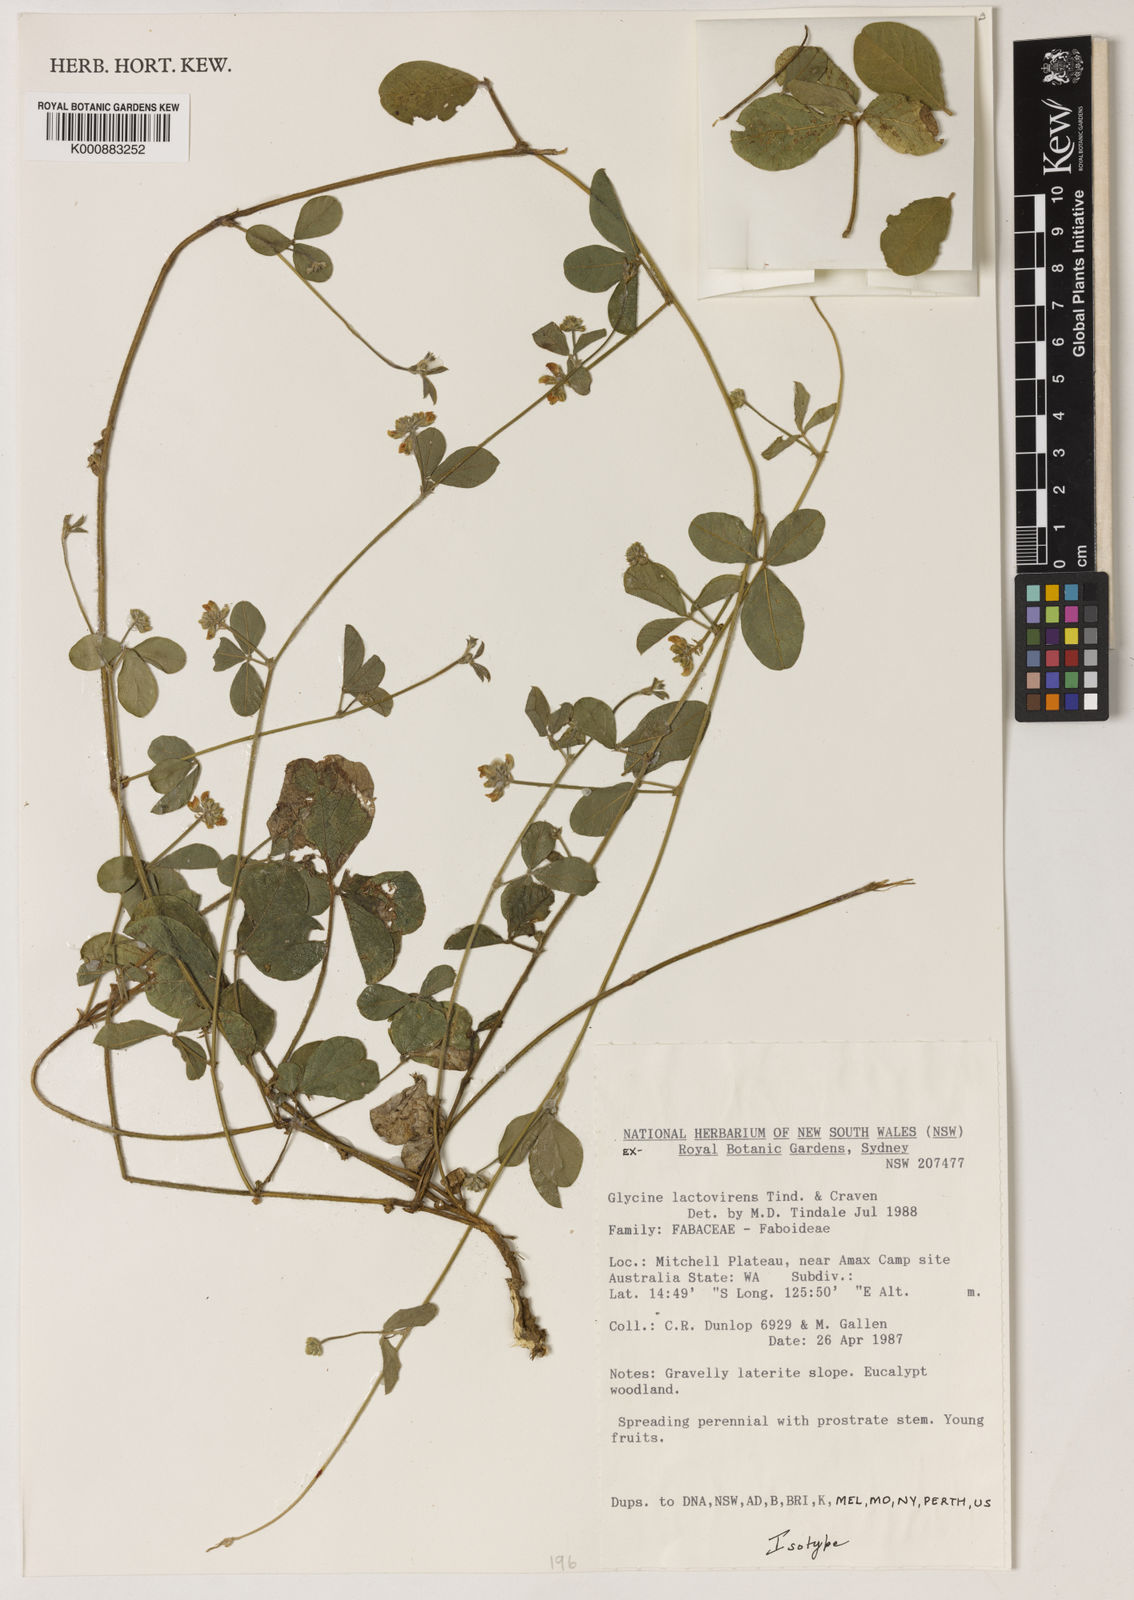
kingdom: Plantae
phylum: Tracheophyta
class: Magnoliopsida
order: Fabales
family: Fabaceae
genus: Glycine
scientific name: Glycine lactovirens
